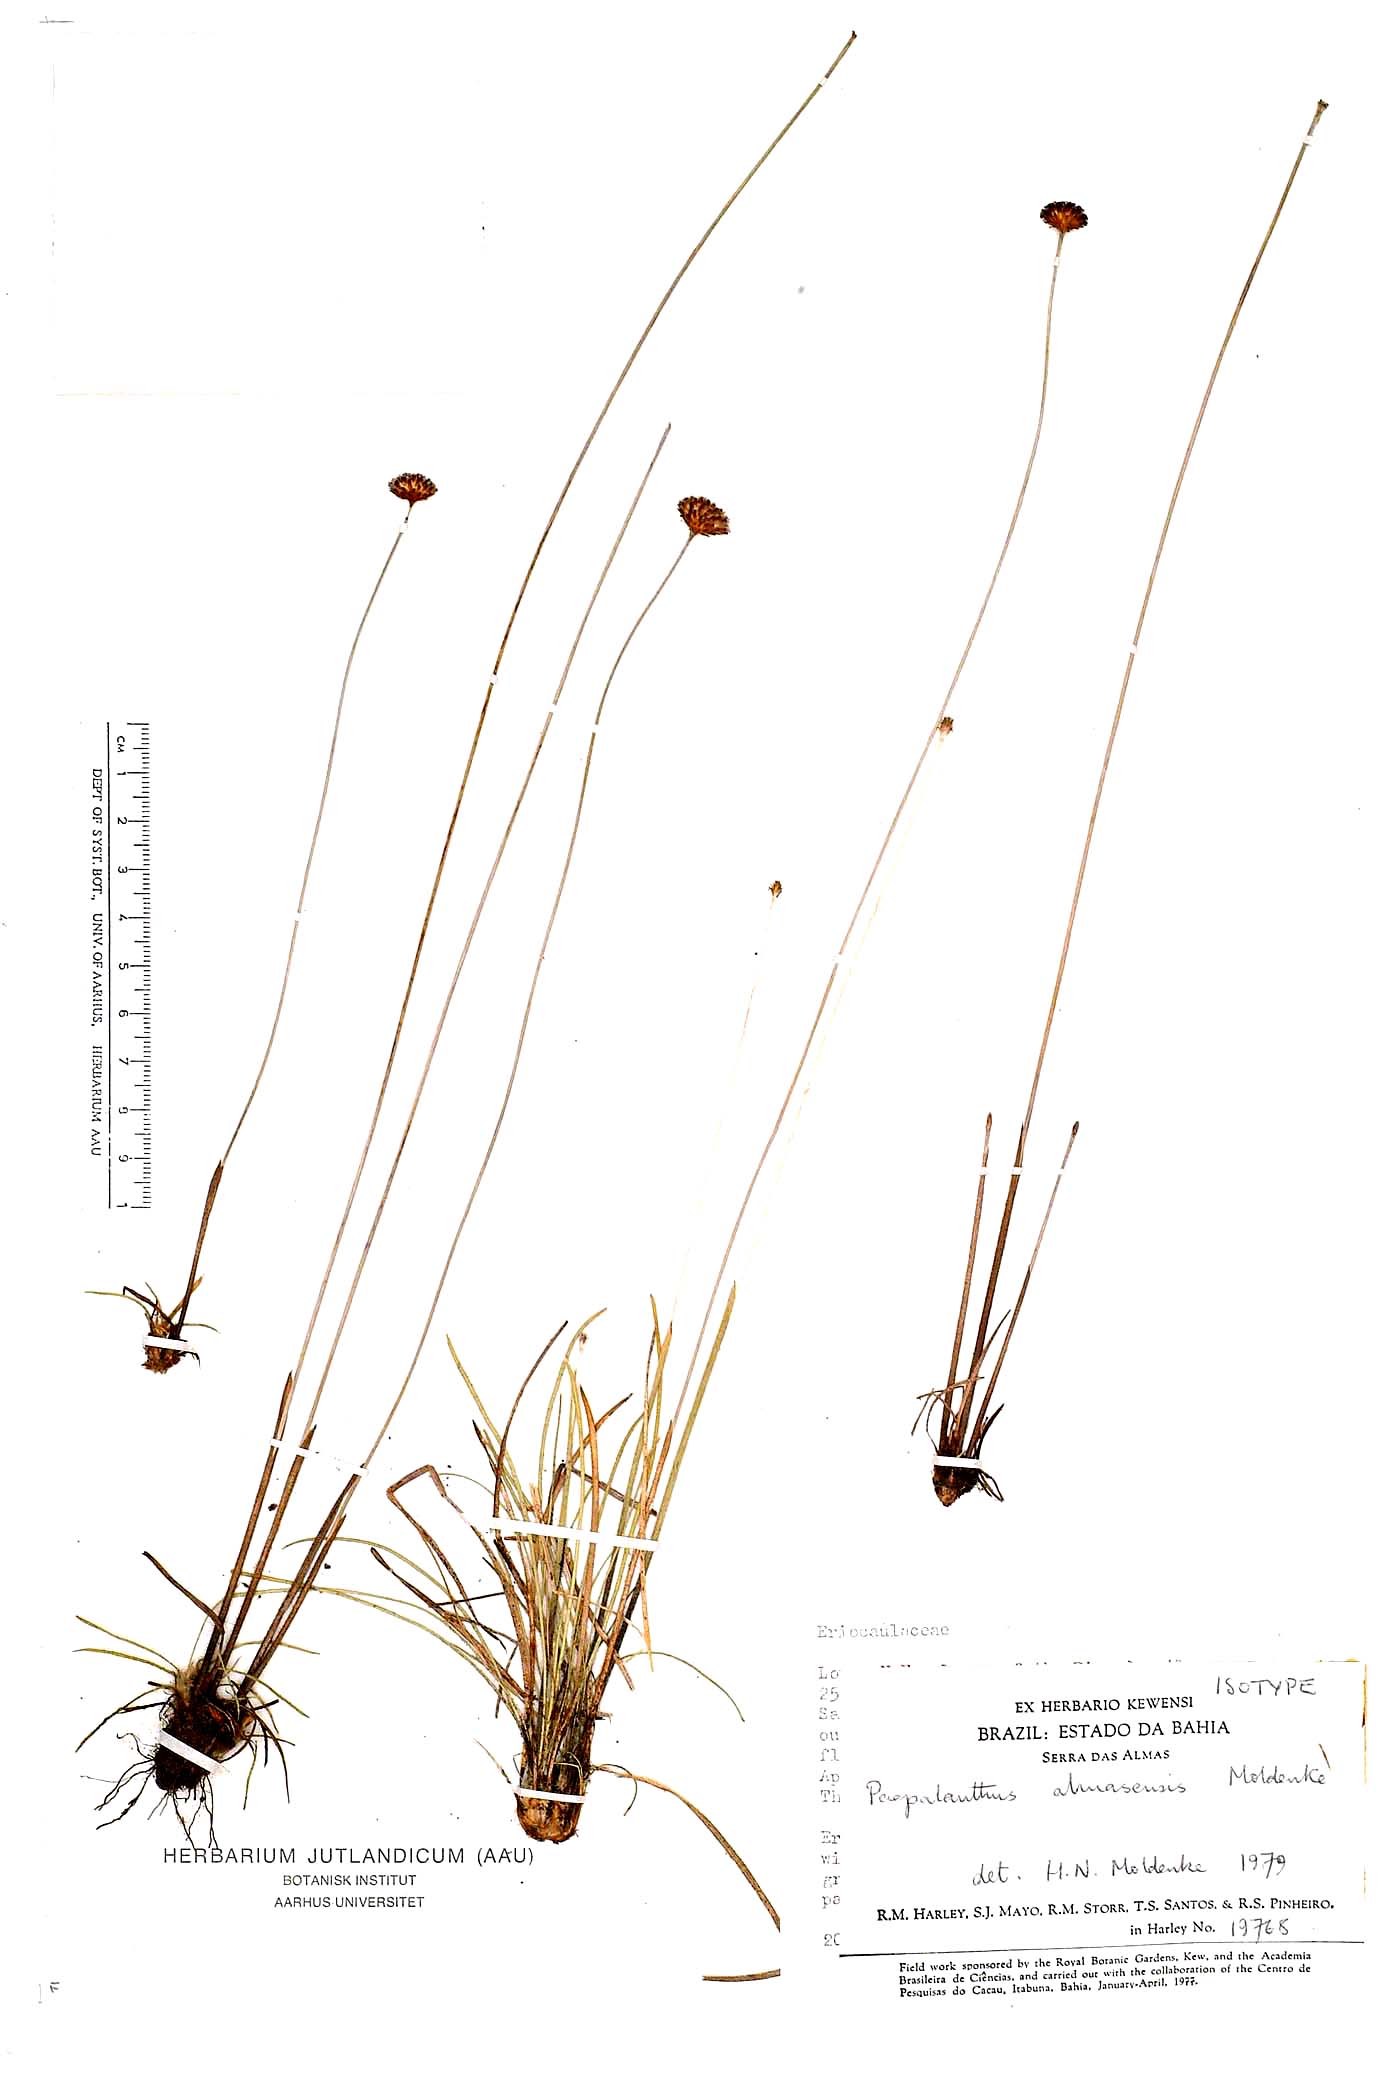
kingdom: Plantae
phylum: Tracheophyta
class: Liliopsida
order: Poales
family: Eriocaulaceae
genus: Paepalanthus
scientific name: Paepalanthus almasensis
